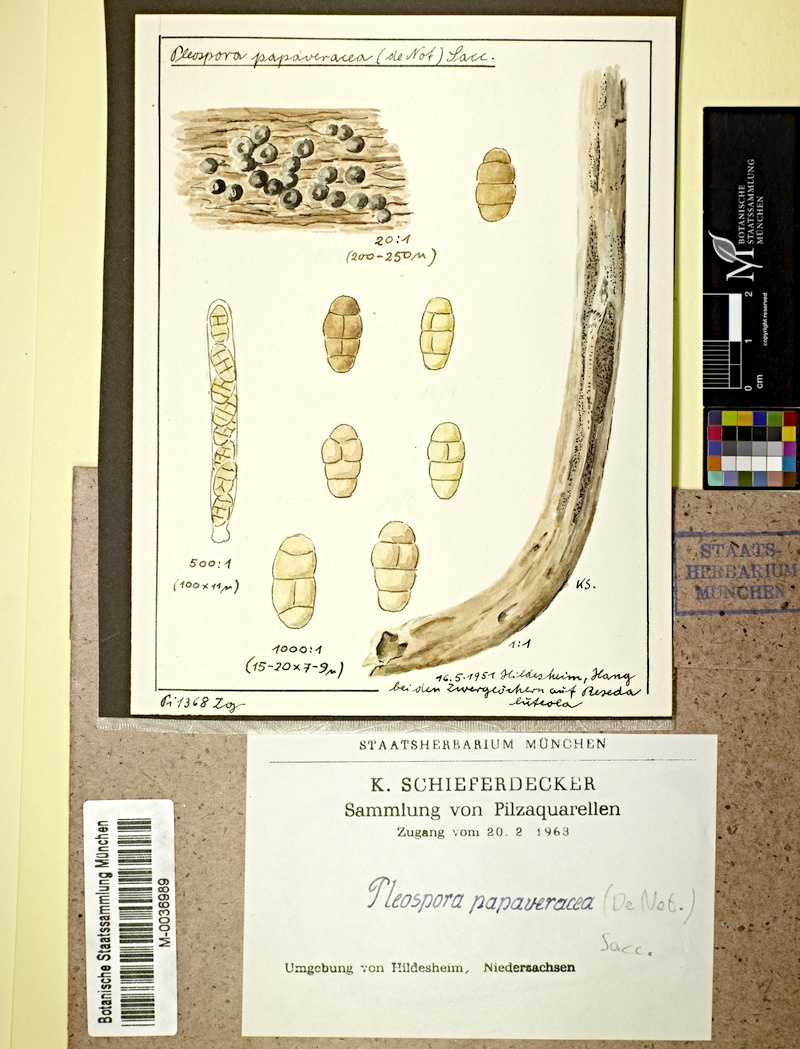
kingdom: Plantae
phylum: Tracheophyta
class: Magnoliopsida
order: Brassicales
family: Resedaceae
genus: Reseda
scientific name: Reseda luteola
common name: Weld
